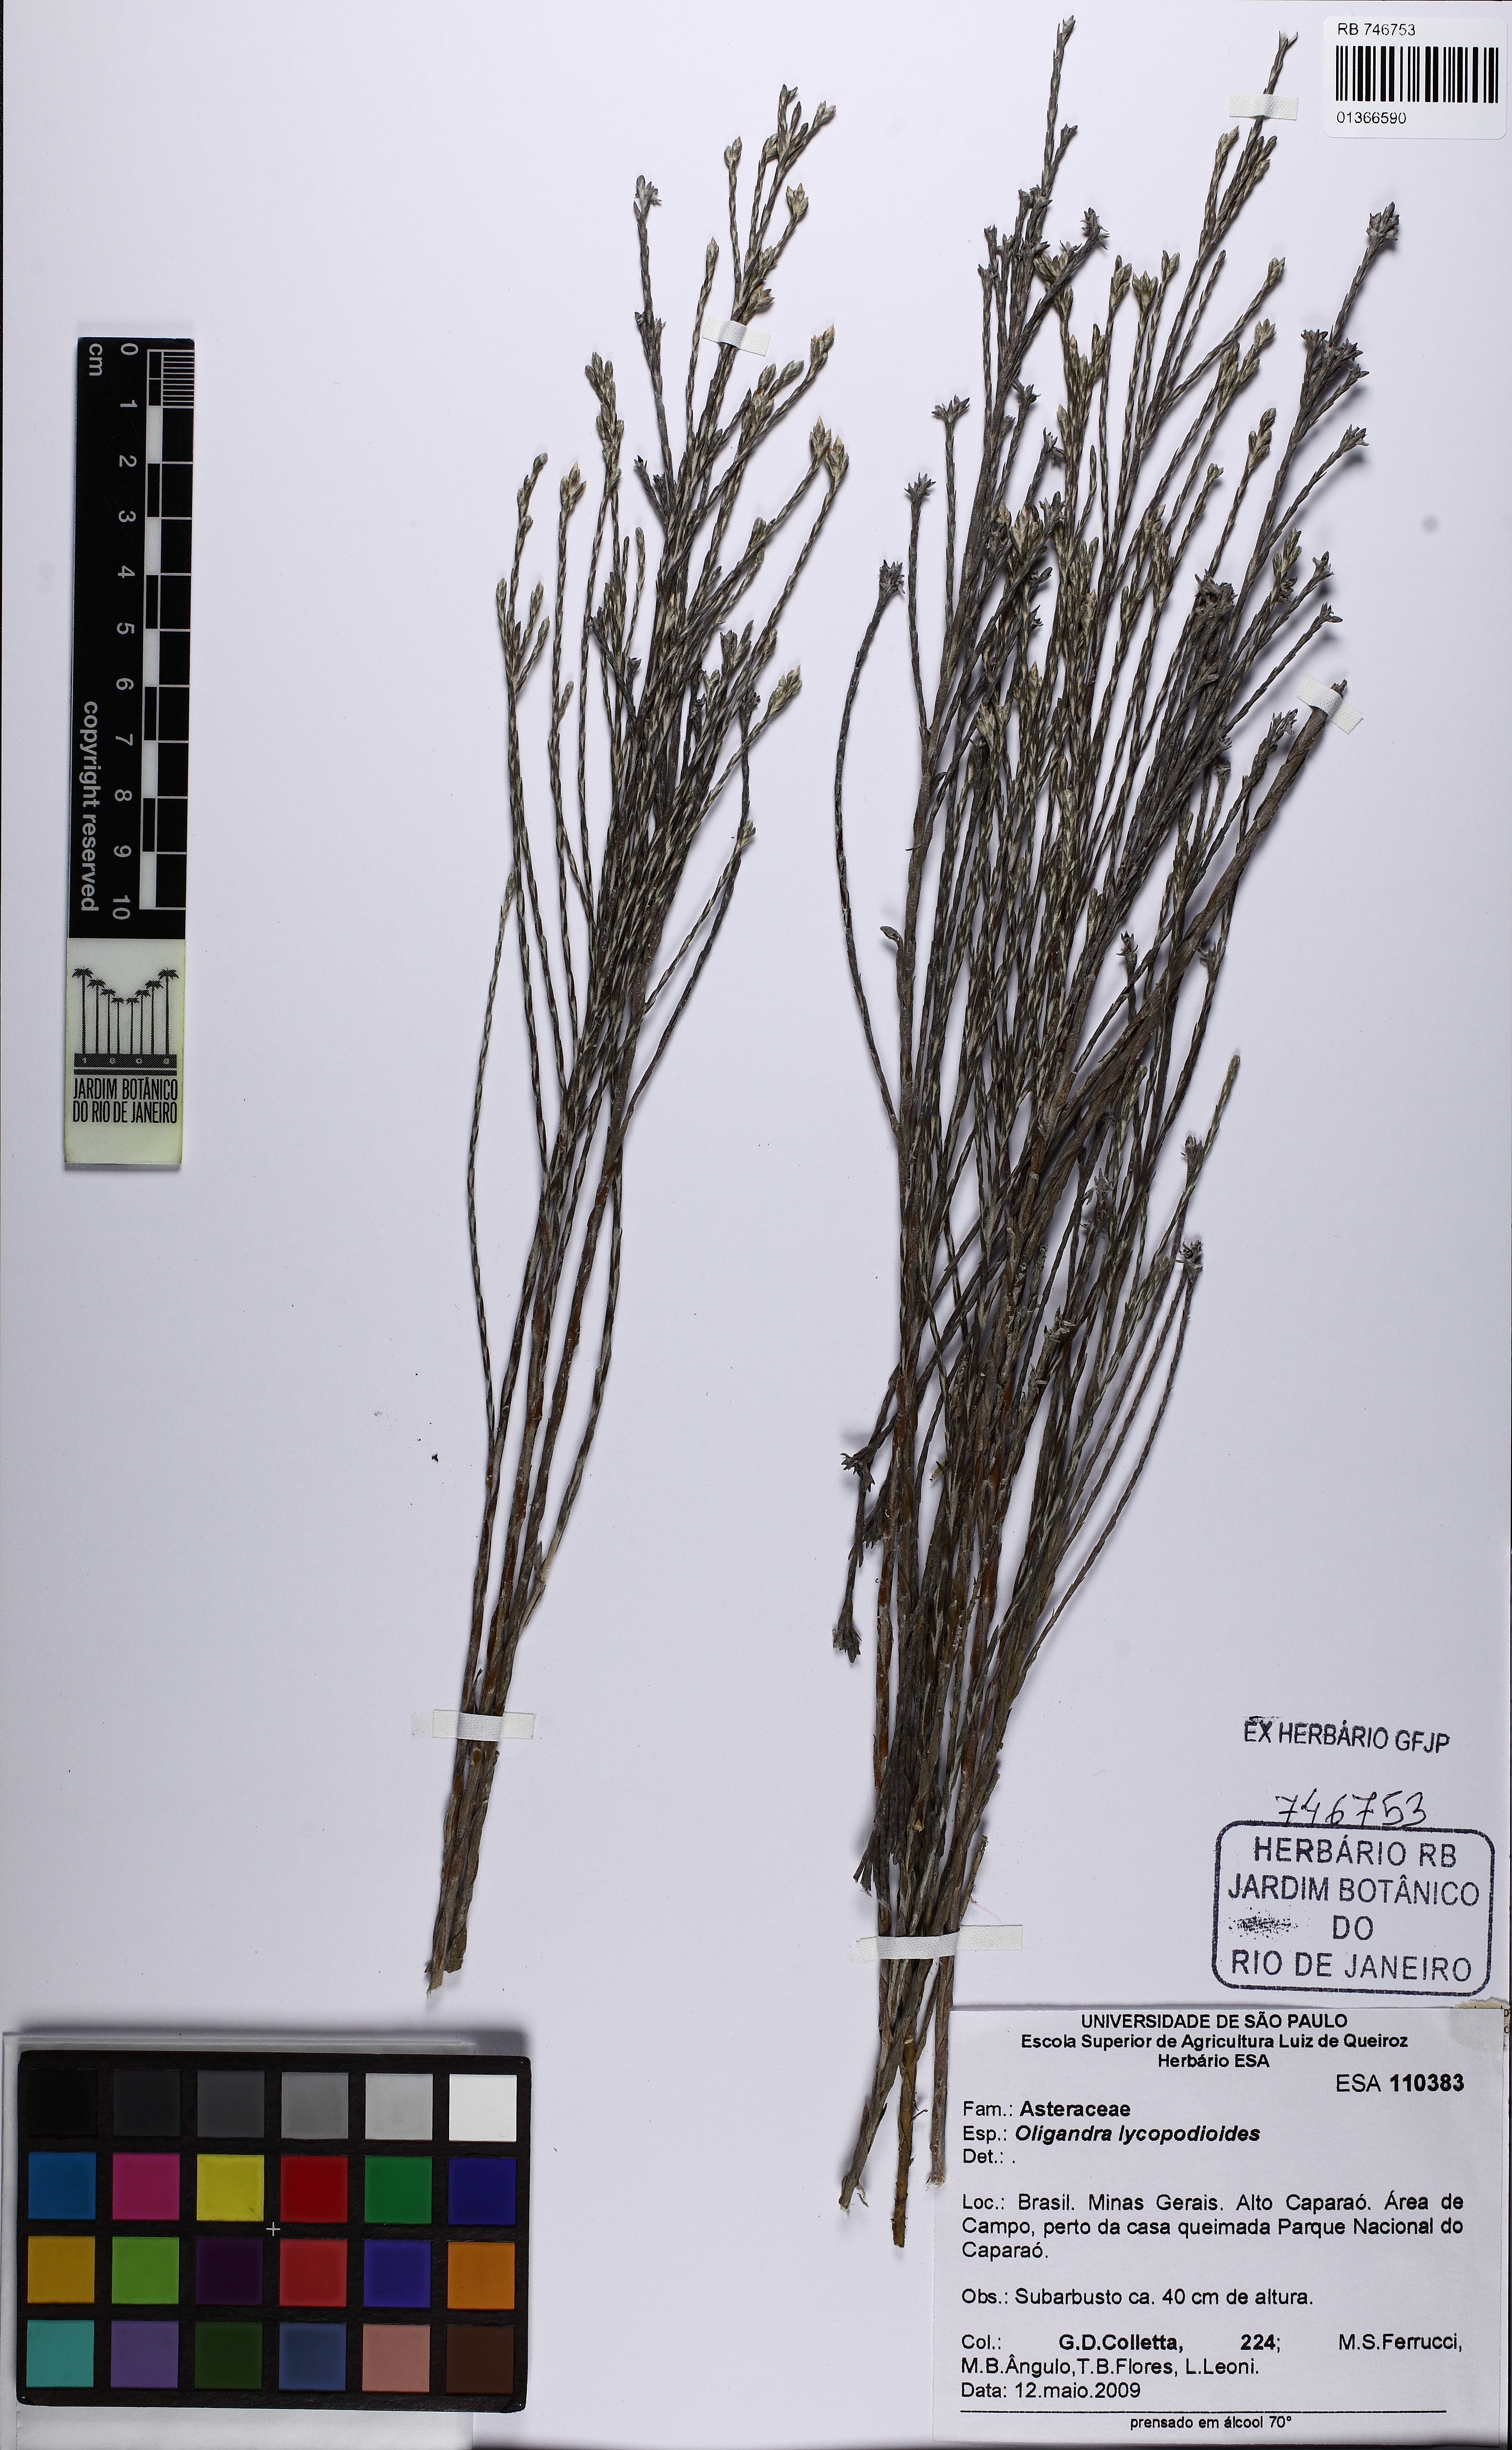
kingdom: Plantae
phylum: Tracheophyta
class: Magnoliopsida
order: Asterales
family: Asteraceae
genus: Lucilia
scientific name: Lucilia lycopodioides
